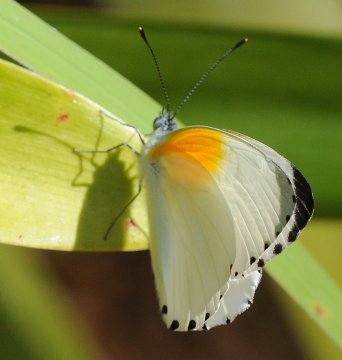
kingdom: Animalia
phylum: Arthropoda
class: Insecta
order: Lepidoptera
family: Pieridae
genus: Mylothris
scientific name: Mylothris rueppellii
